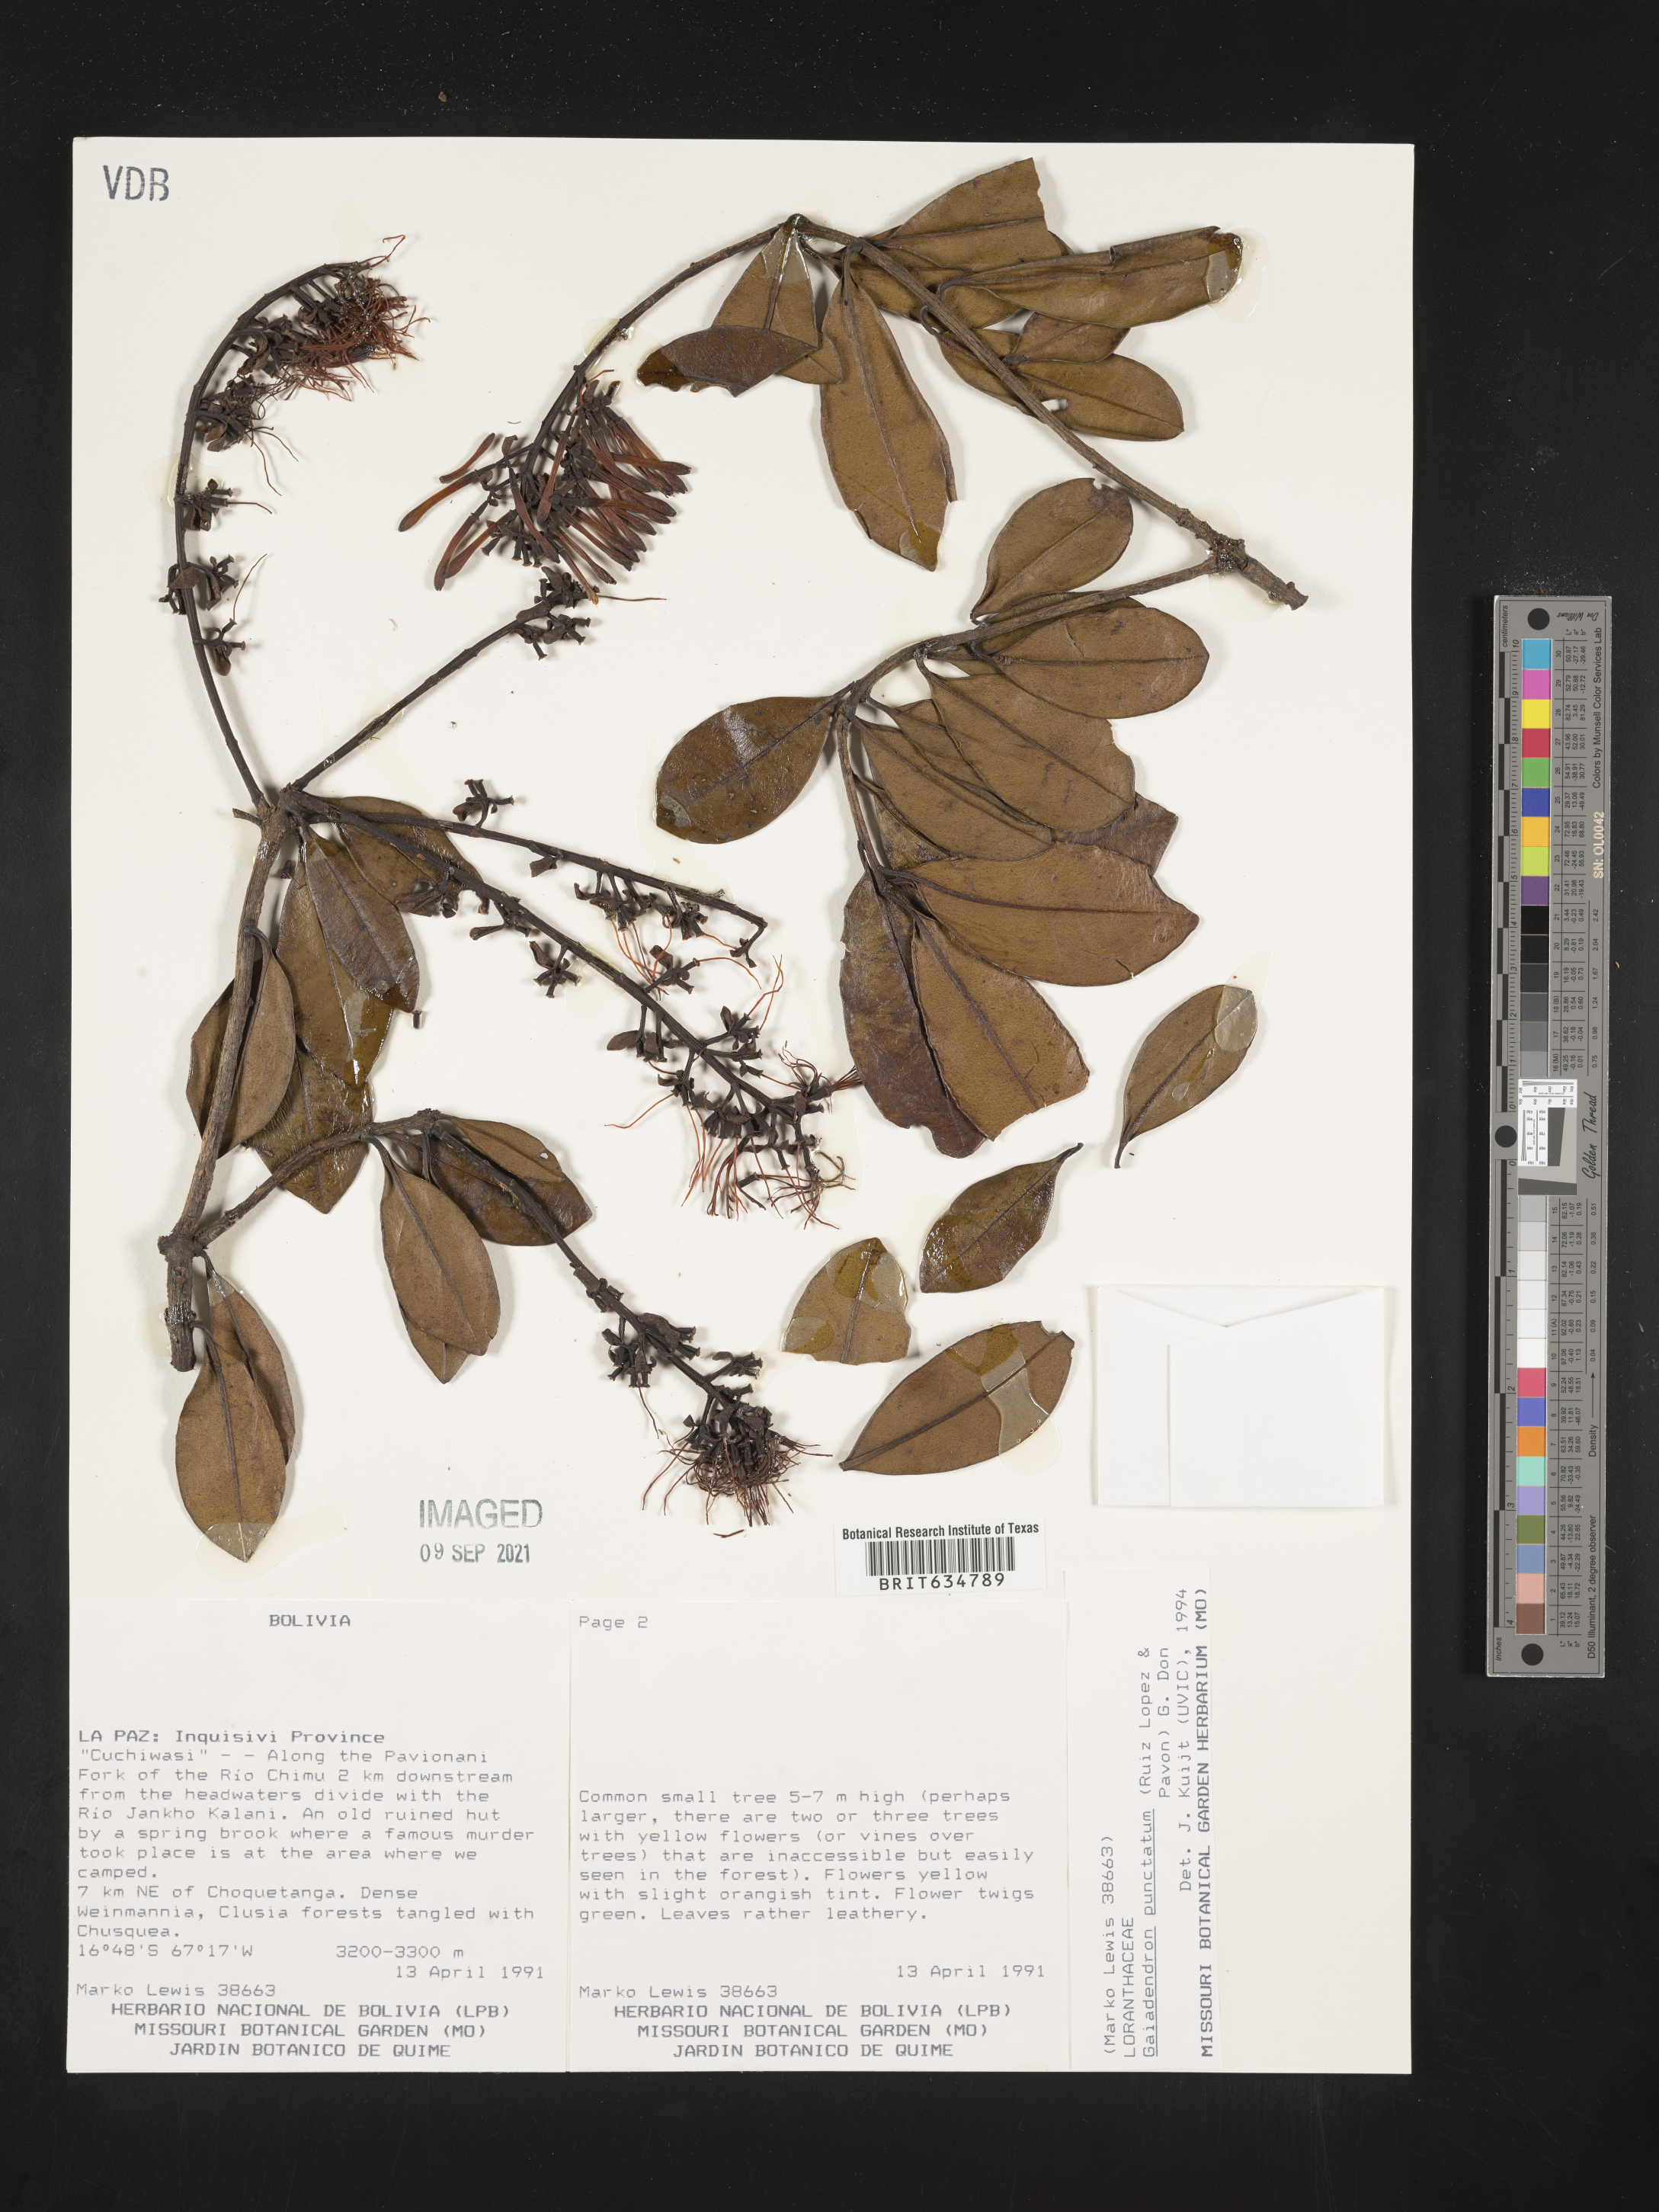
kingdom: Plantae
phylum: Tracheophyta
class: Magnoliopsida
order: Santalales
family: Loranthaceae
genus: Gaiadendron
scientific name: Gaiadendron
